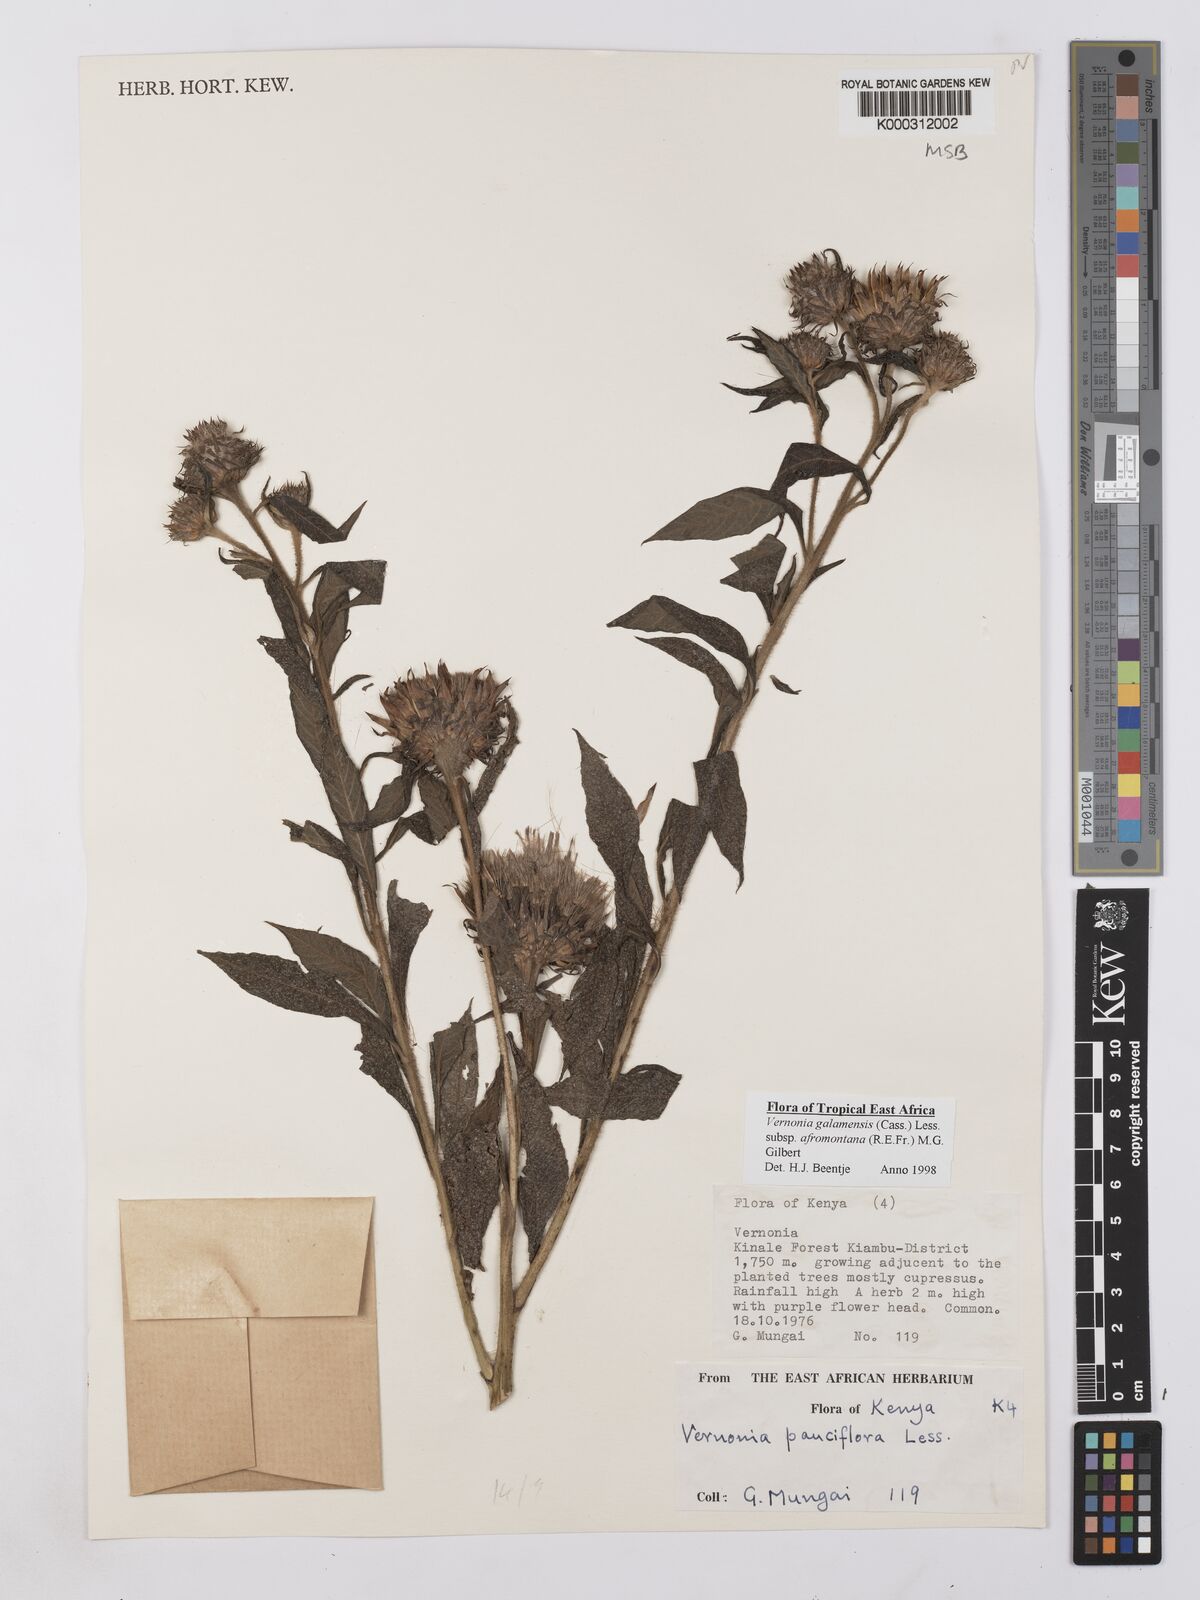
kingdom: Plantae
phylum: Tracheophyta
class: Magnoliopsida
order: Asterales
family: Asteraceae
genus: Vernonia
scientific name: Vernonia galamensis
